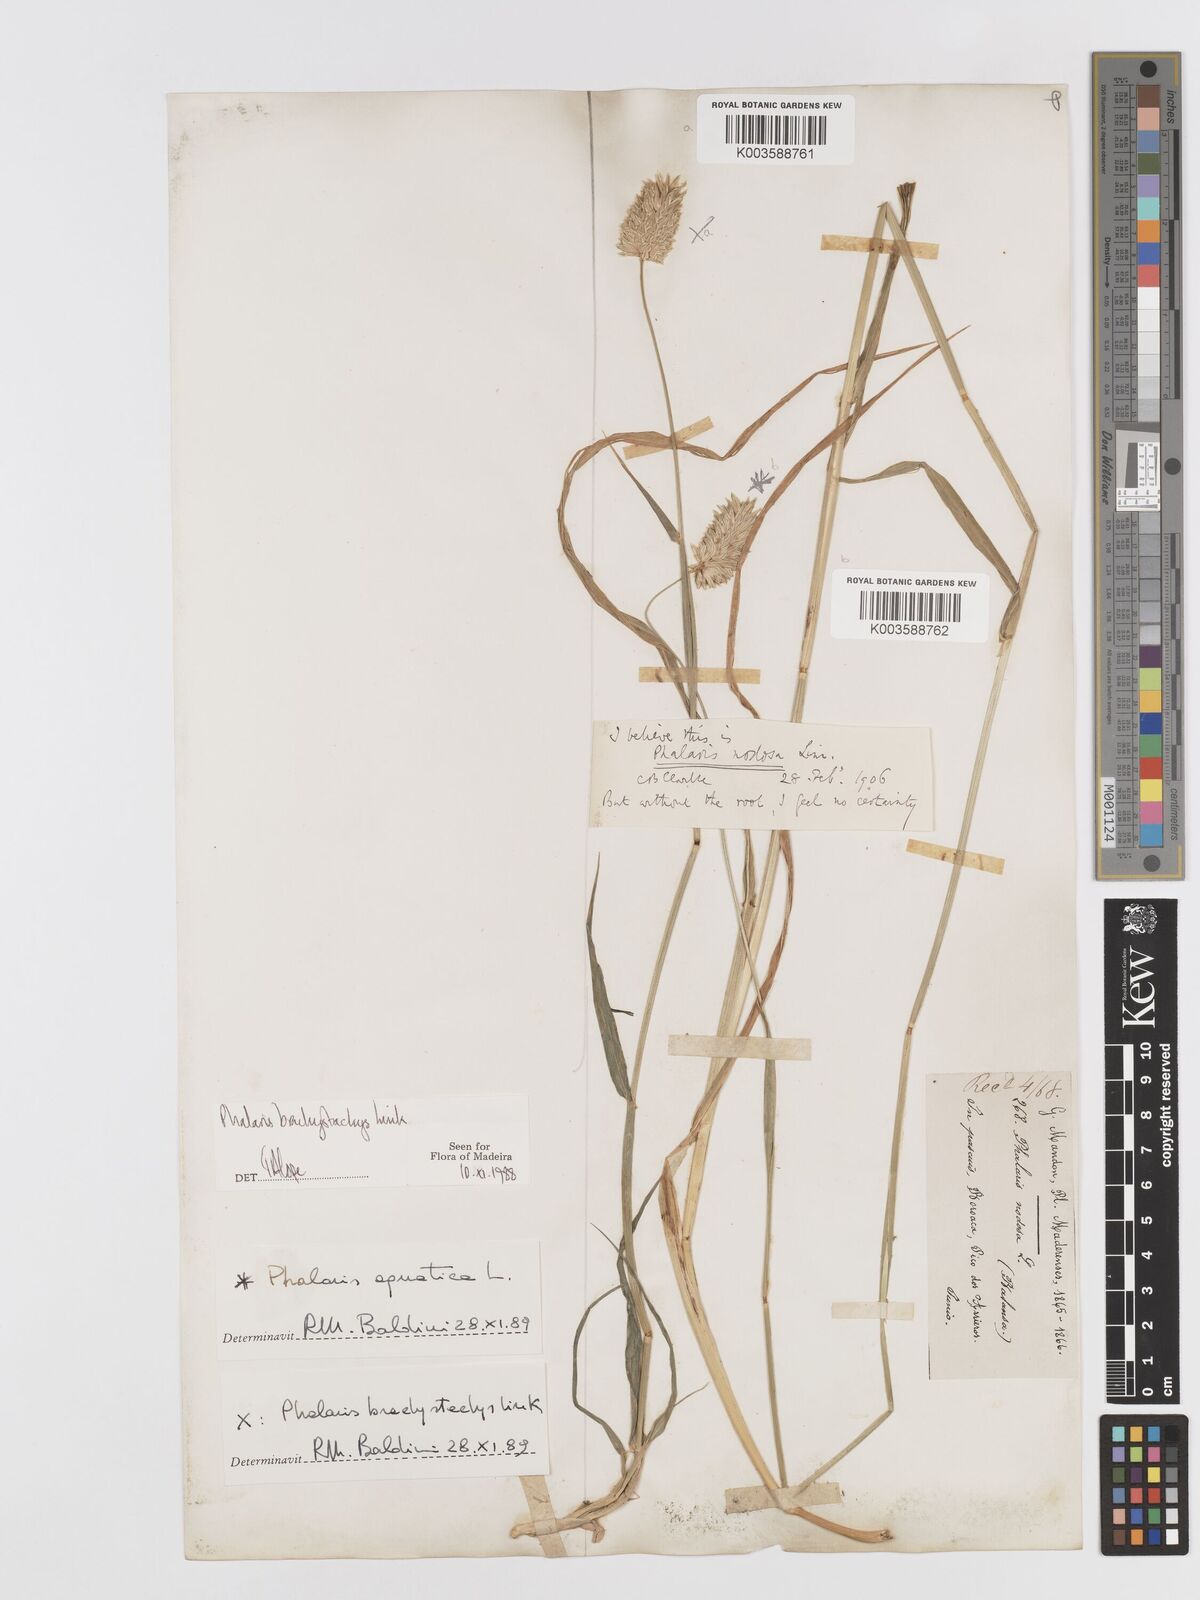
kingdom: Plantae
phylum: Tracheophyta
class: Liliopsida
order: Poales
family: Poaceae
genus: Phalaris
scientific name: Phalaris brachystachys
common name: Confused canary-grass
